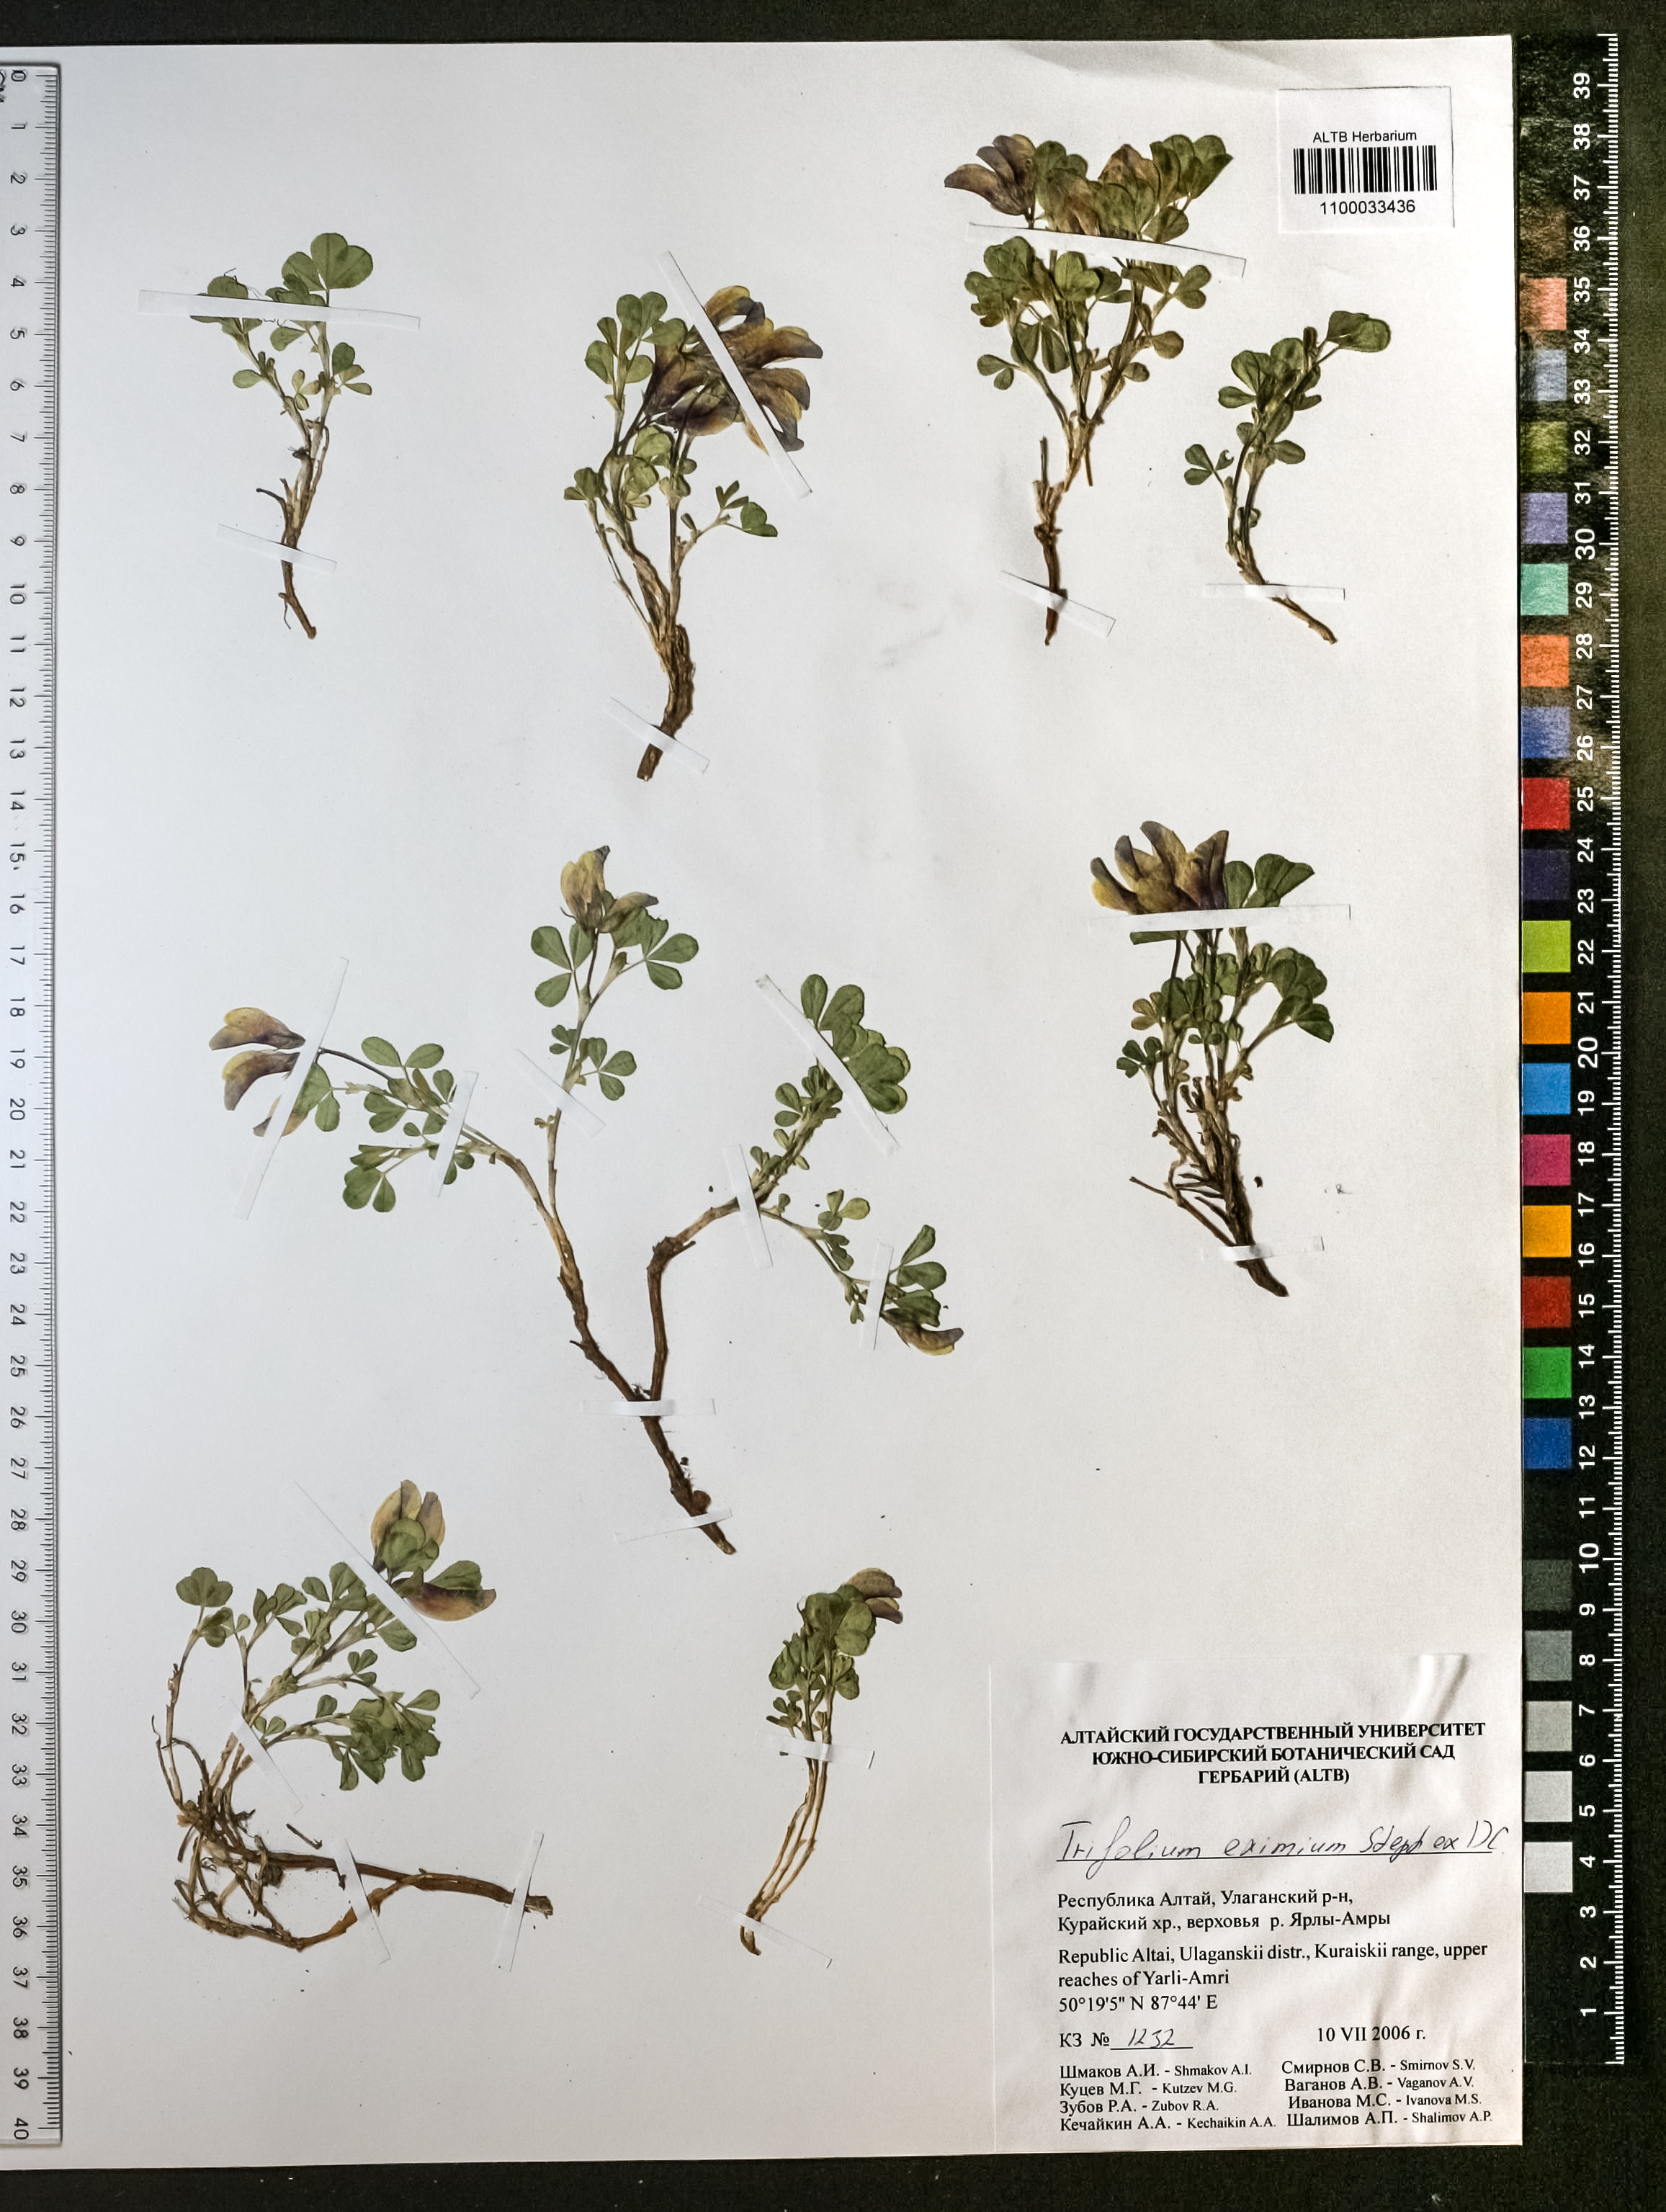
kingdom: Plantae
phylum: Tracheophyta
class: Magnoliopsida
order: Fabales
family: Fabaceae
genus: Trifolium
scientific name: Trifolium eximium
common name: Excellent clover
